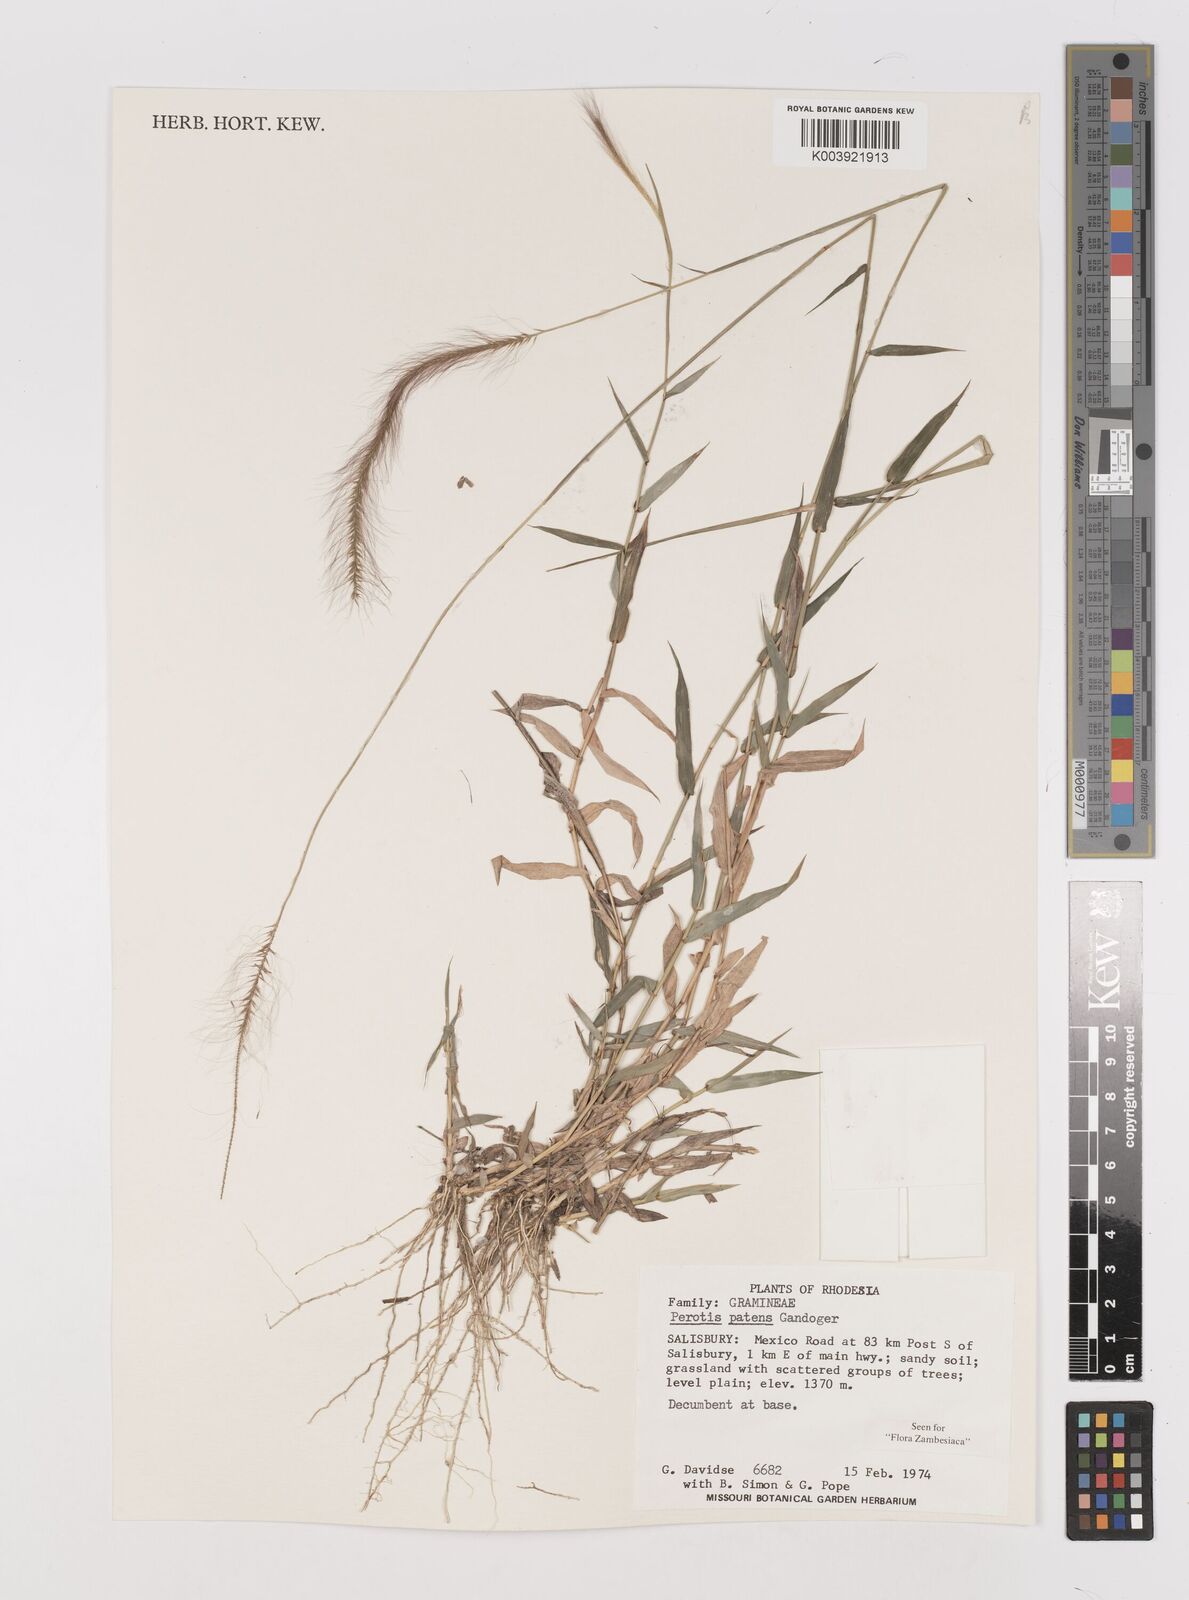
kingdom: Plantae
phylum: Tracheophyta
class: Liliopsida
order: Poales
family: Poaceae
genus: Perotis
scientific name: Perotis patens
